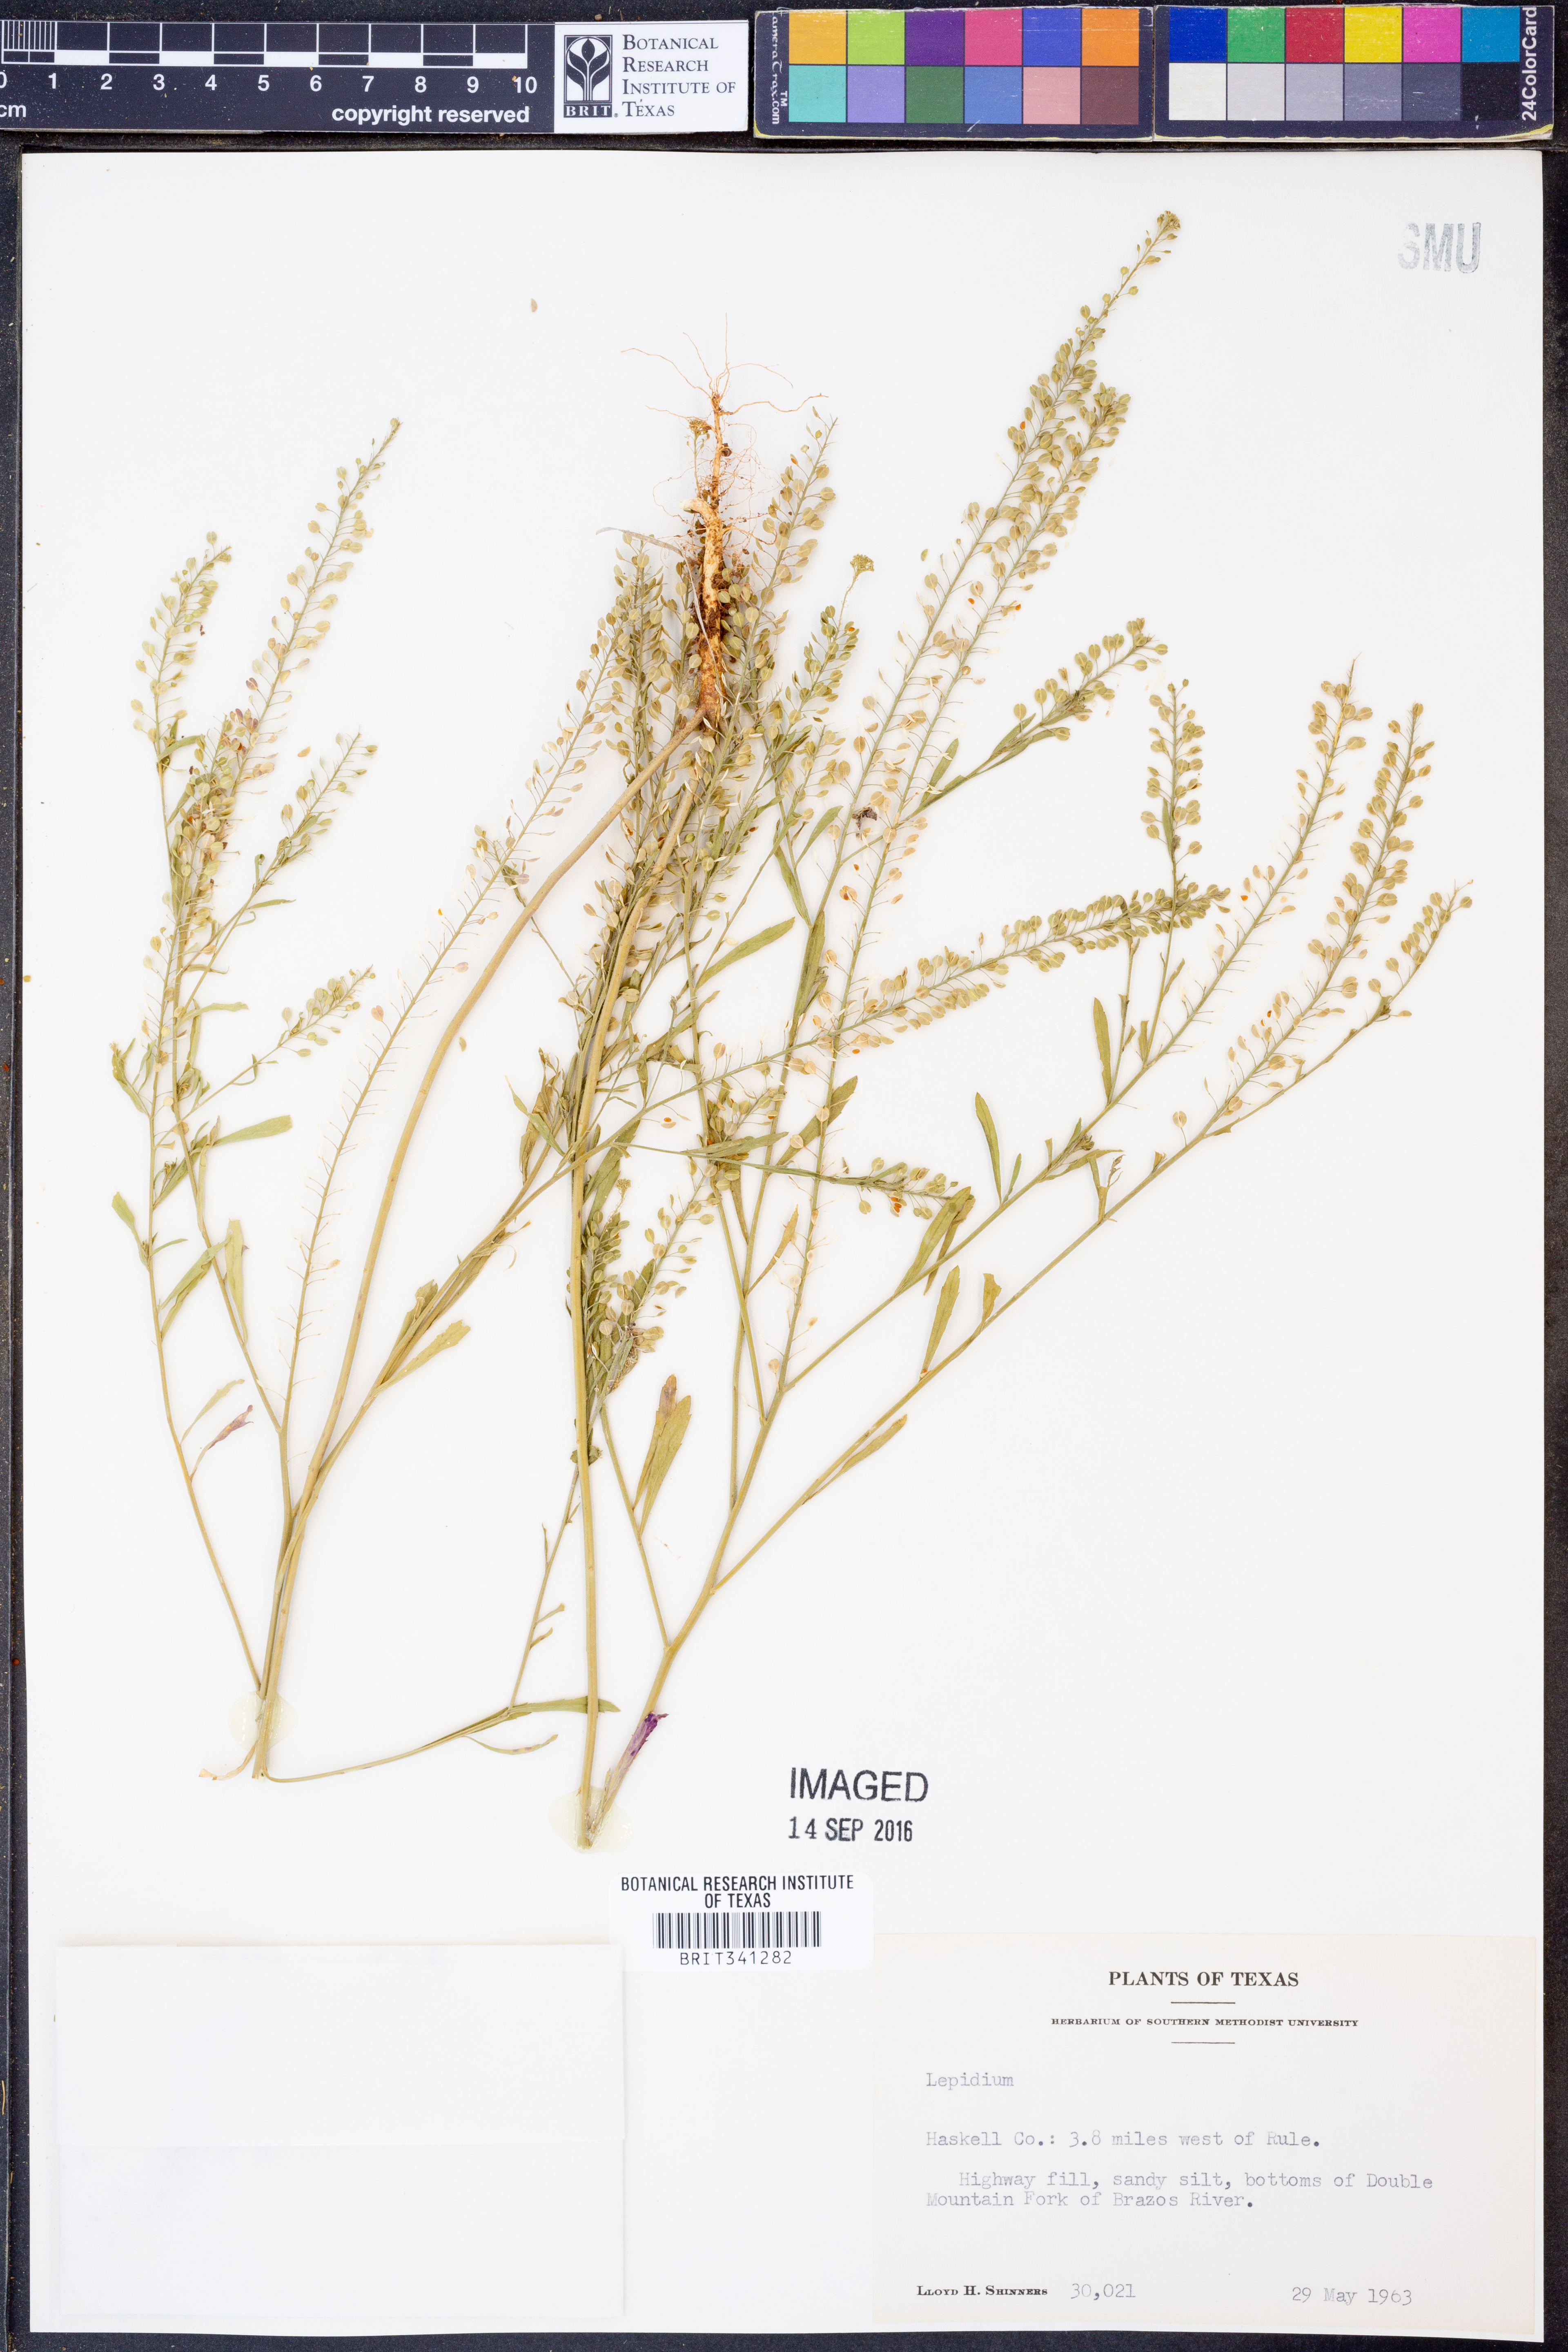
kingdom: Plantae
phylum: Tracheophyta
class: Magnoliopsida
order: Brassicales
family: Brassicaceae
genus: Lepidium
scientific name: Lepidium
